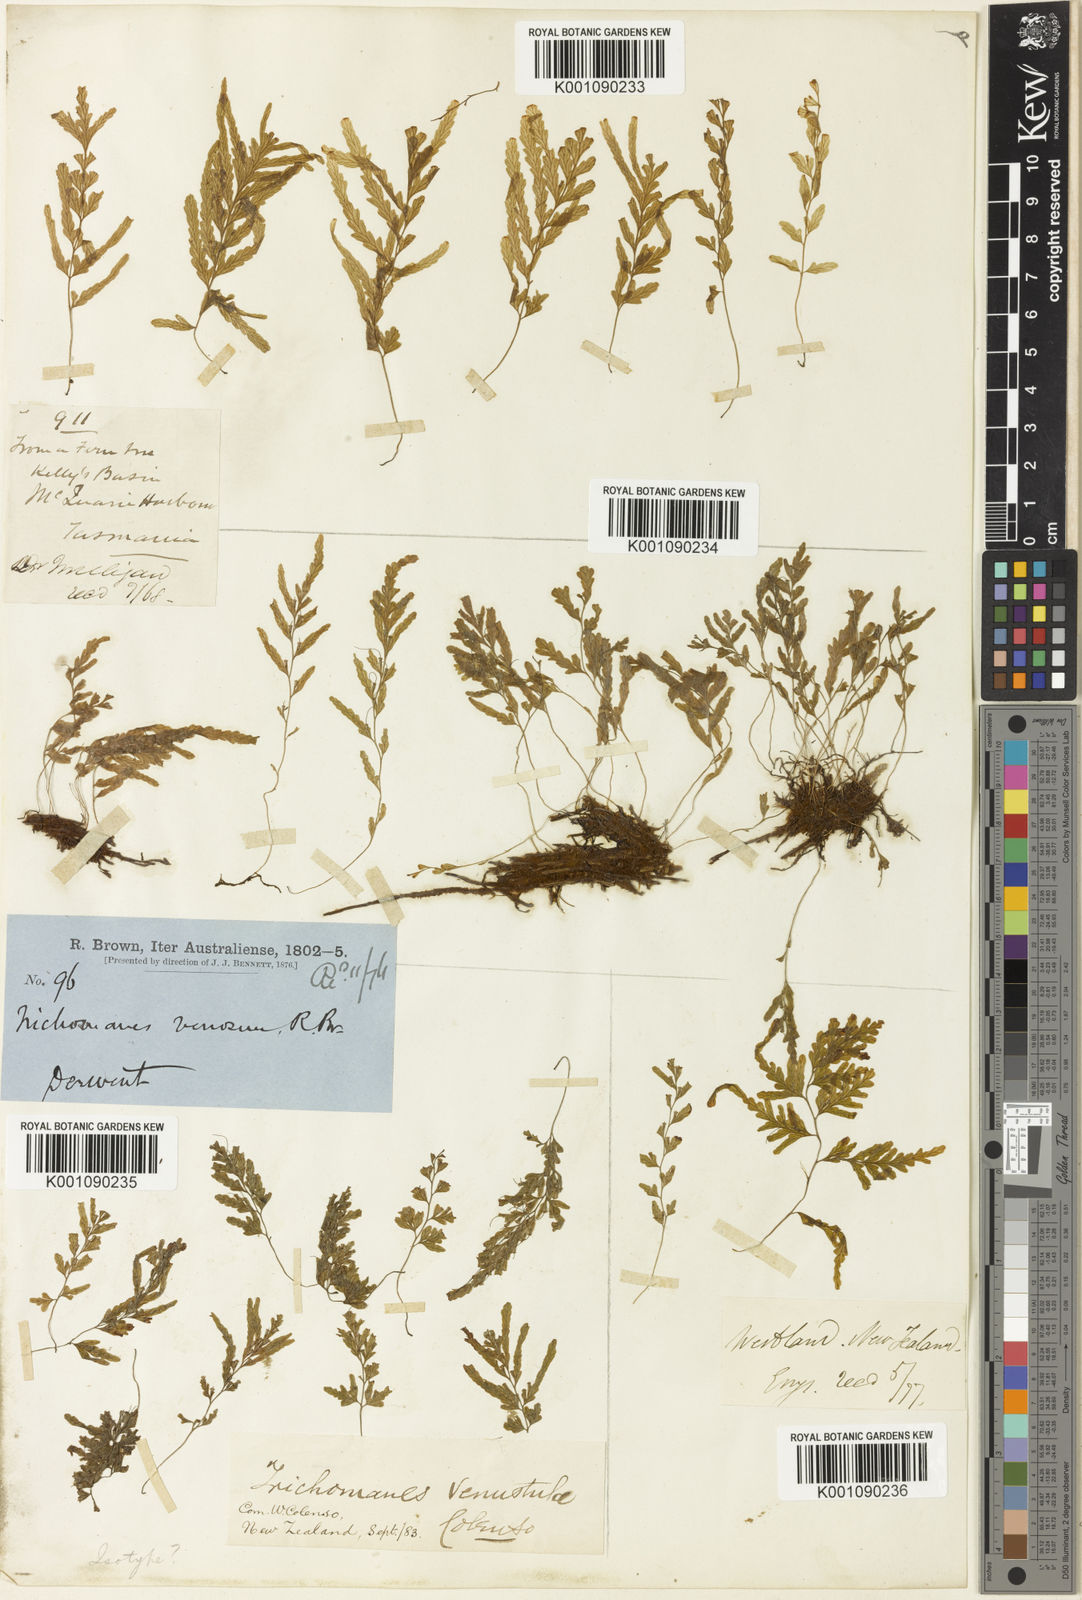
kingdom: Plantae
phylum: Tracheophyta
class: Polypodiopsida
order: Hymenophyllales
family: Hymenophyllaceae
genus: Polyphlebium
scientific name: Polyphlebium venosum
